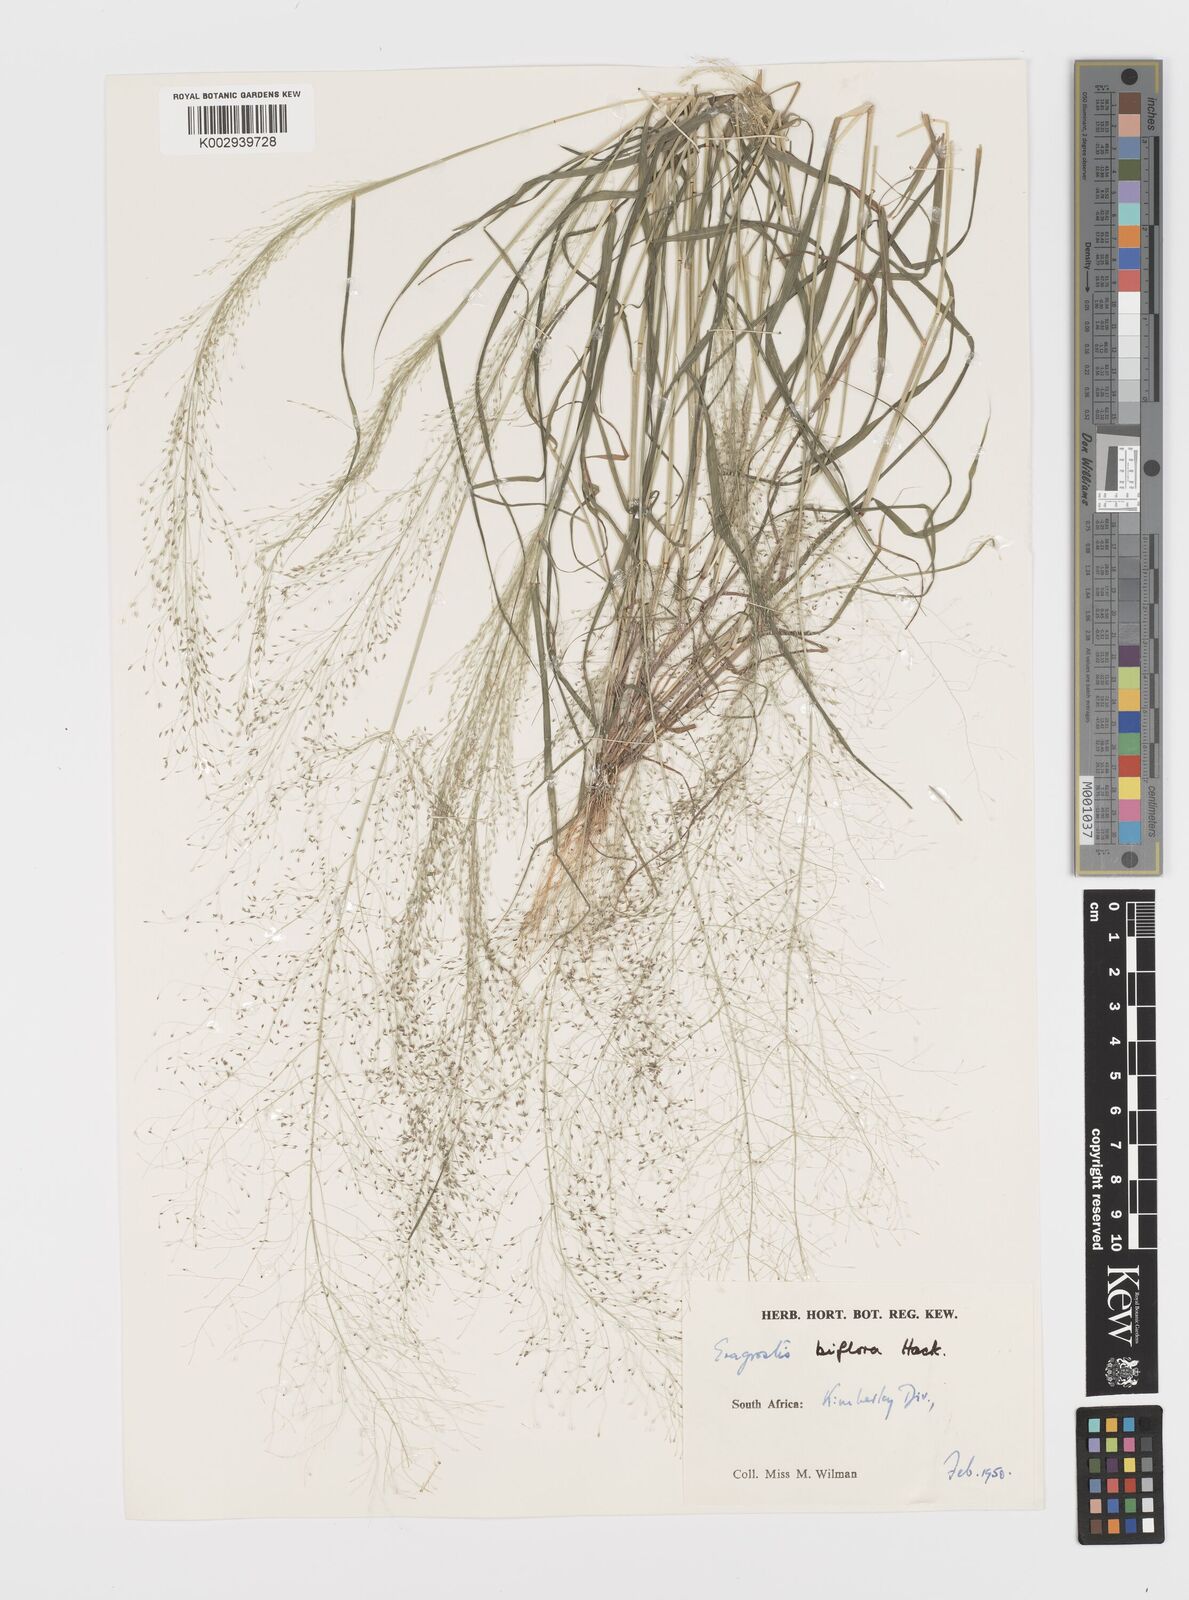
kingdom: Plantae
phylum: Tracheophyta
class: Liliopsida
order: Poales
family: Poaceae
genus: Eragrostis
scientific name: Eragrostis biflora
